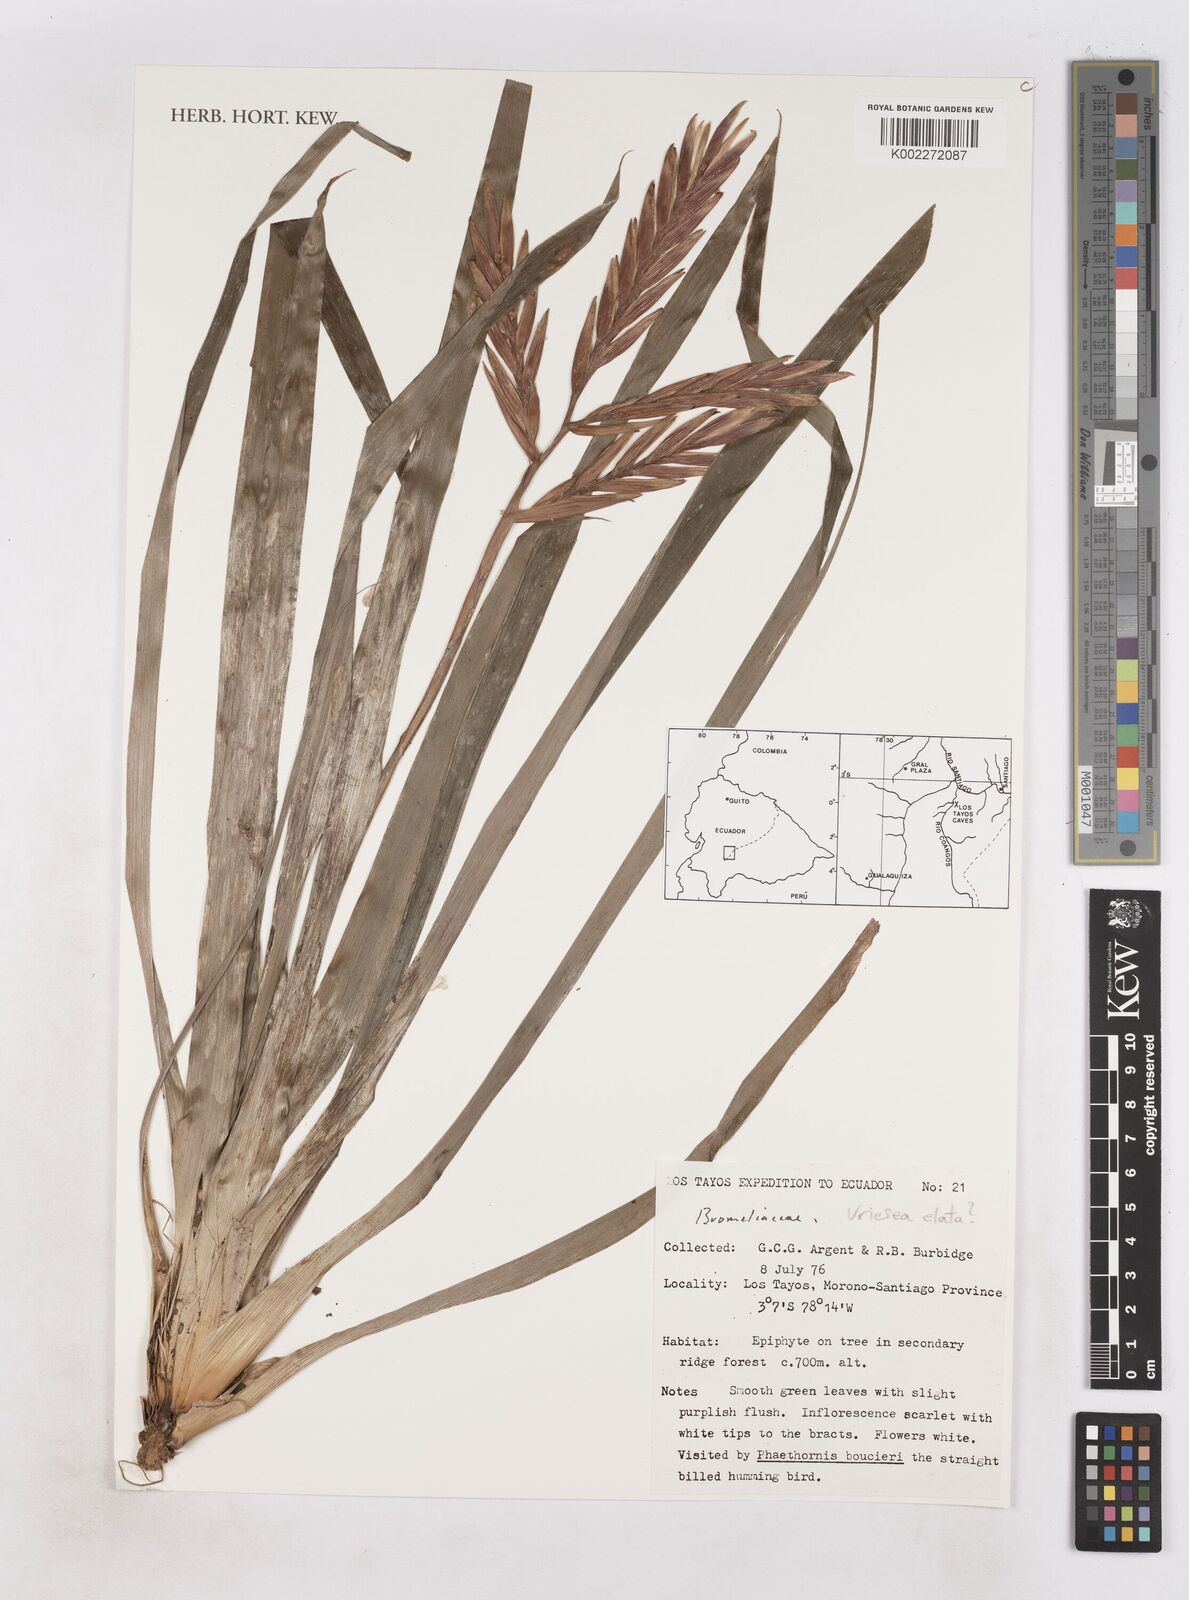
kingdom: Plantae
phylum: Tracheophyta
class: Liliopsida
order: Poales
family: Bromeliaceae
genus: Vriesea
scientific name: Vriesea elata
